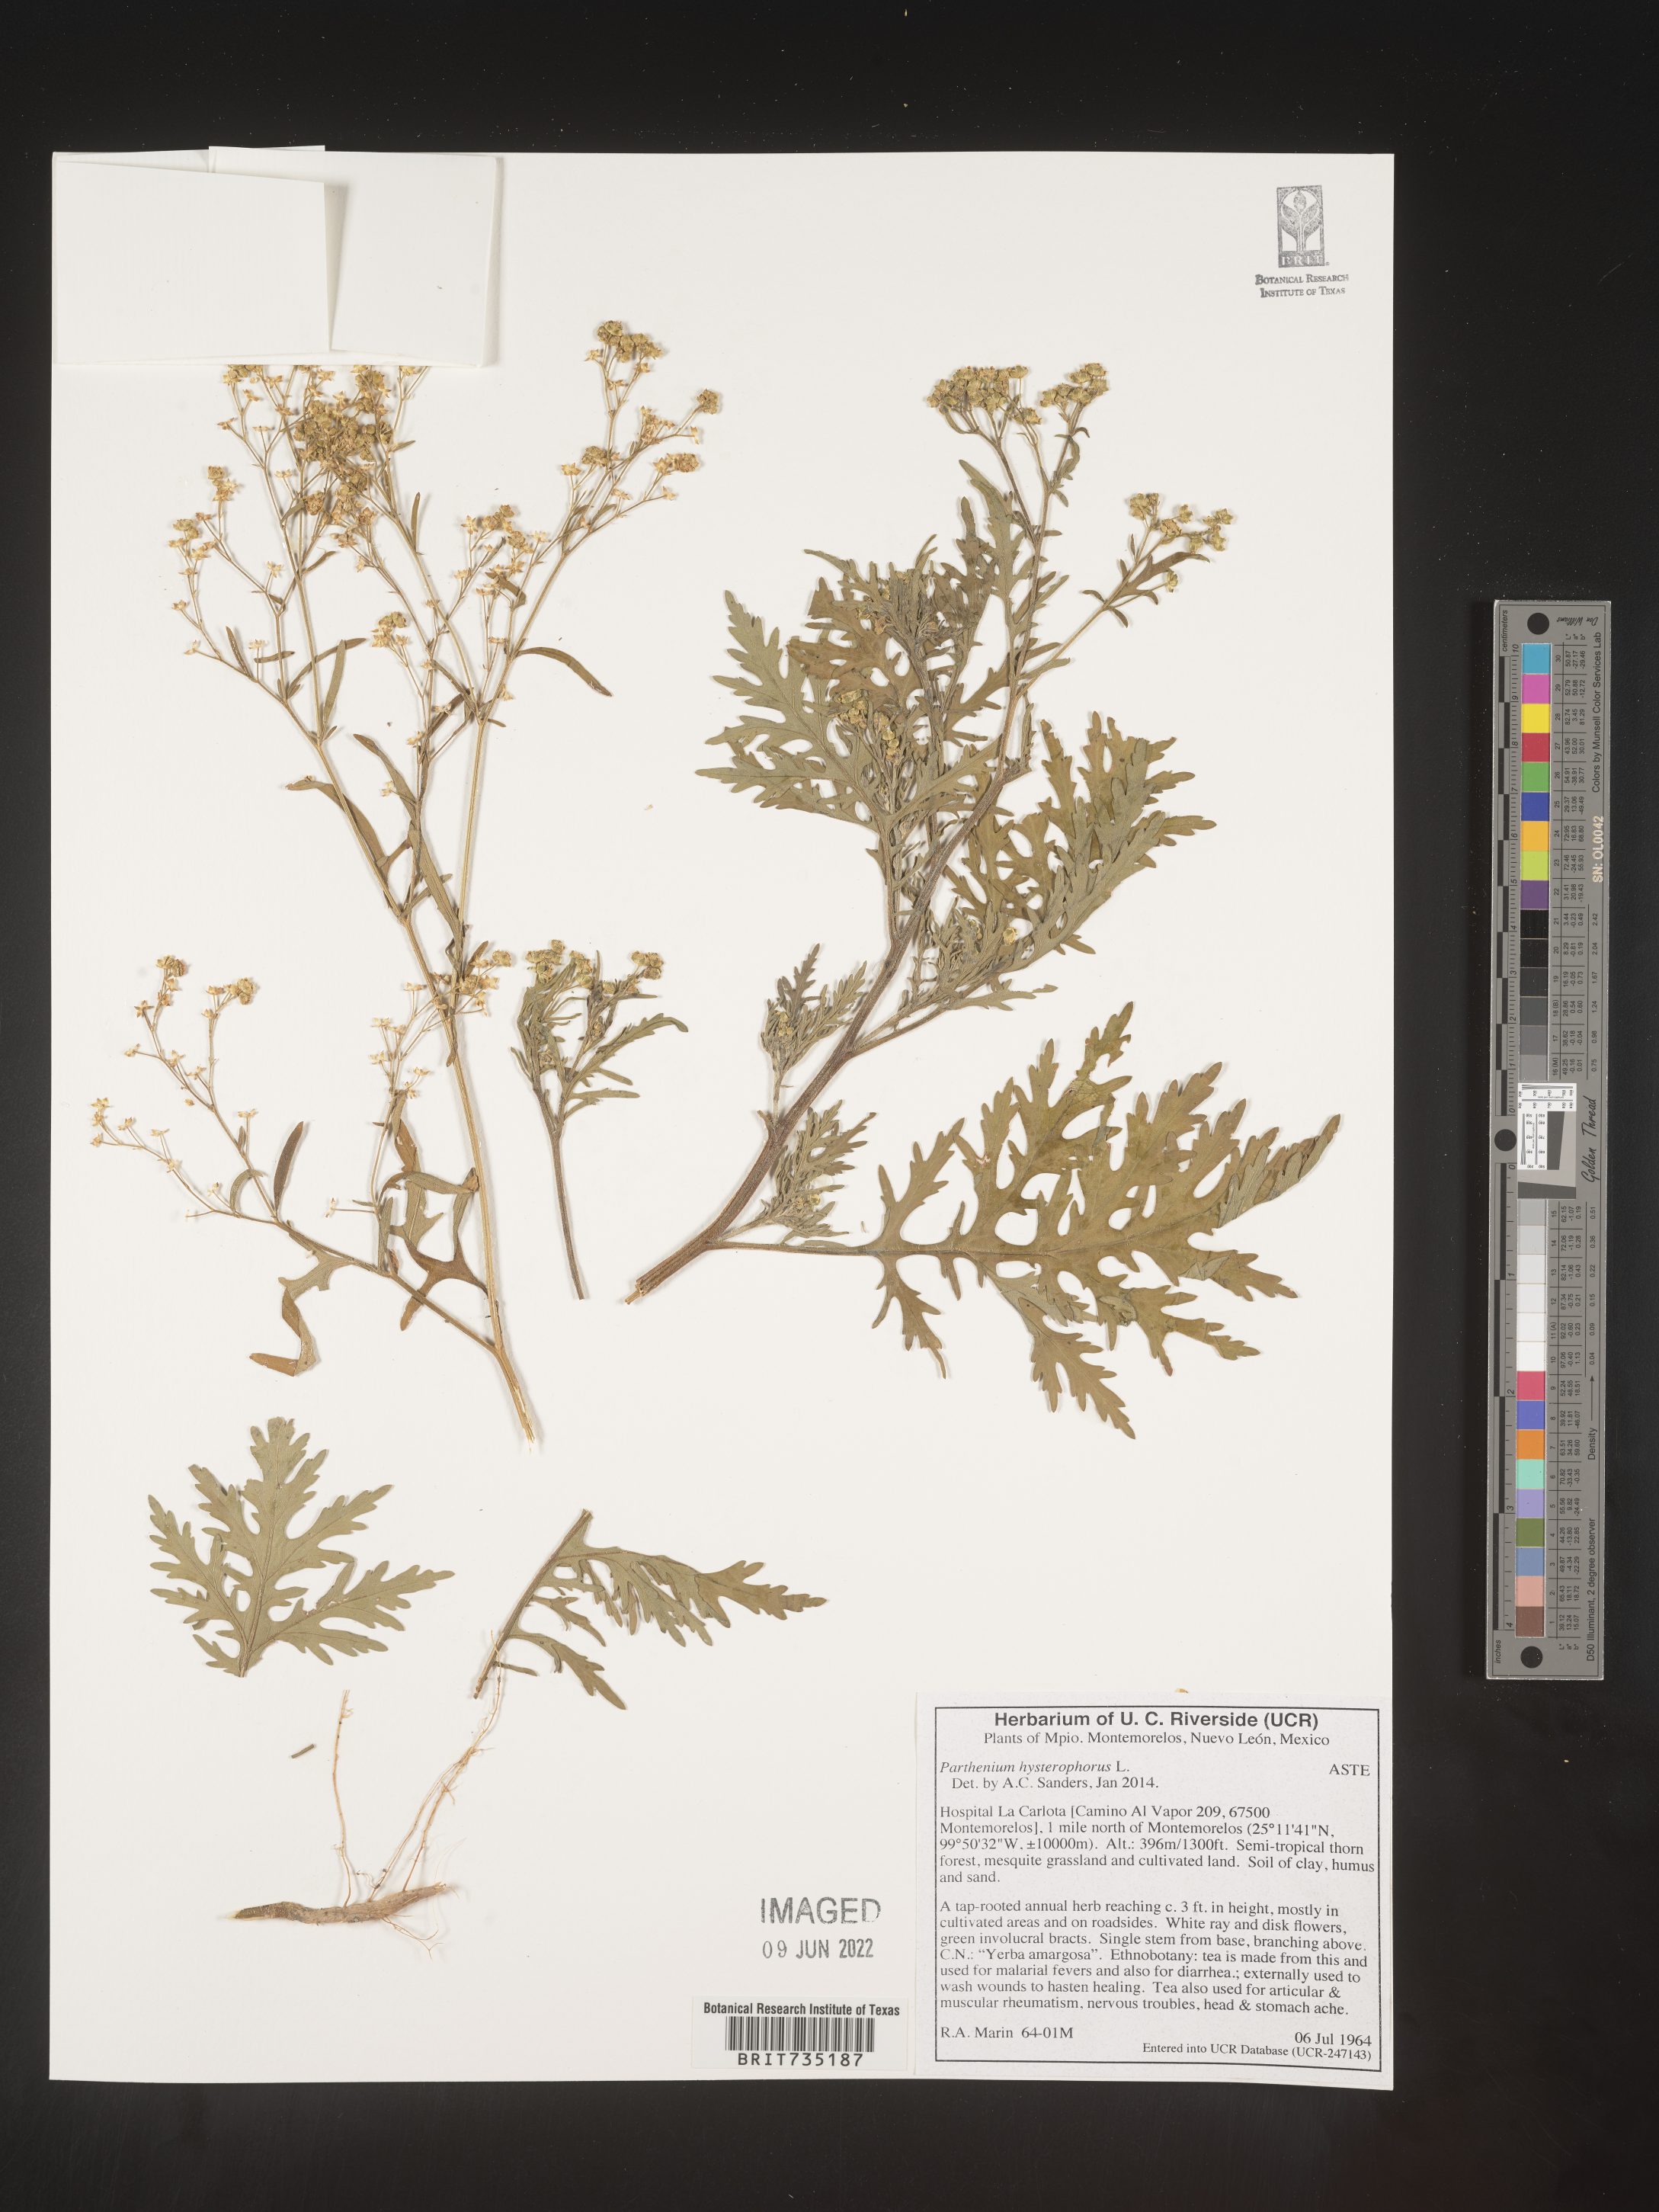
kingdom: Plantae
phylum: Tracheophyta
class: Magnoliopsida
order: Asterales
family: Asteraceae
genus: Parthenium
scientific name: Parthenium hysterophorus
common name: Santa maria feverfew
